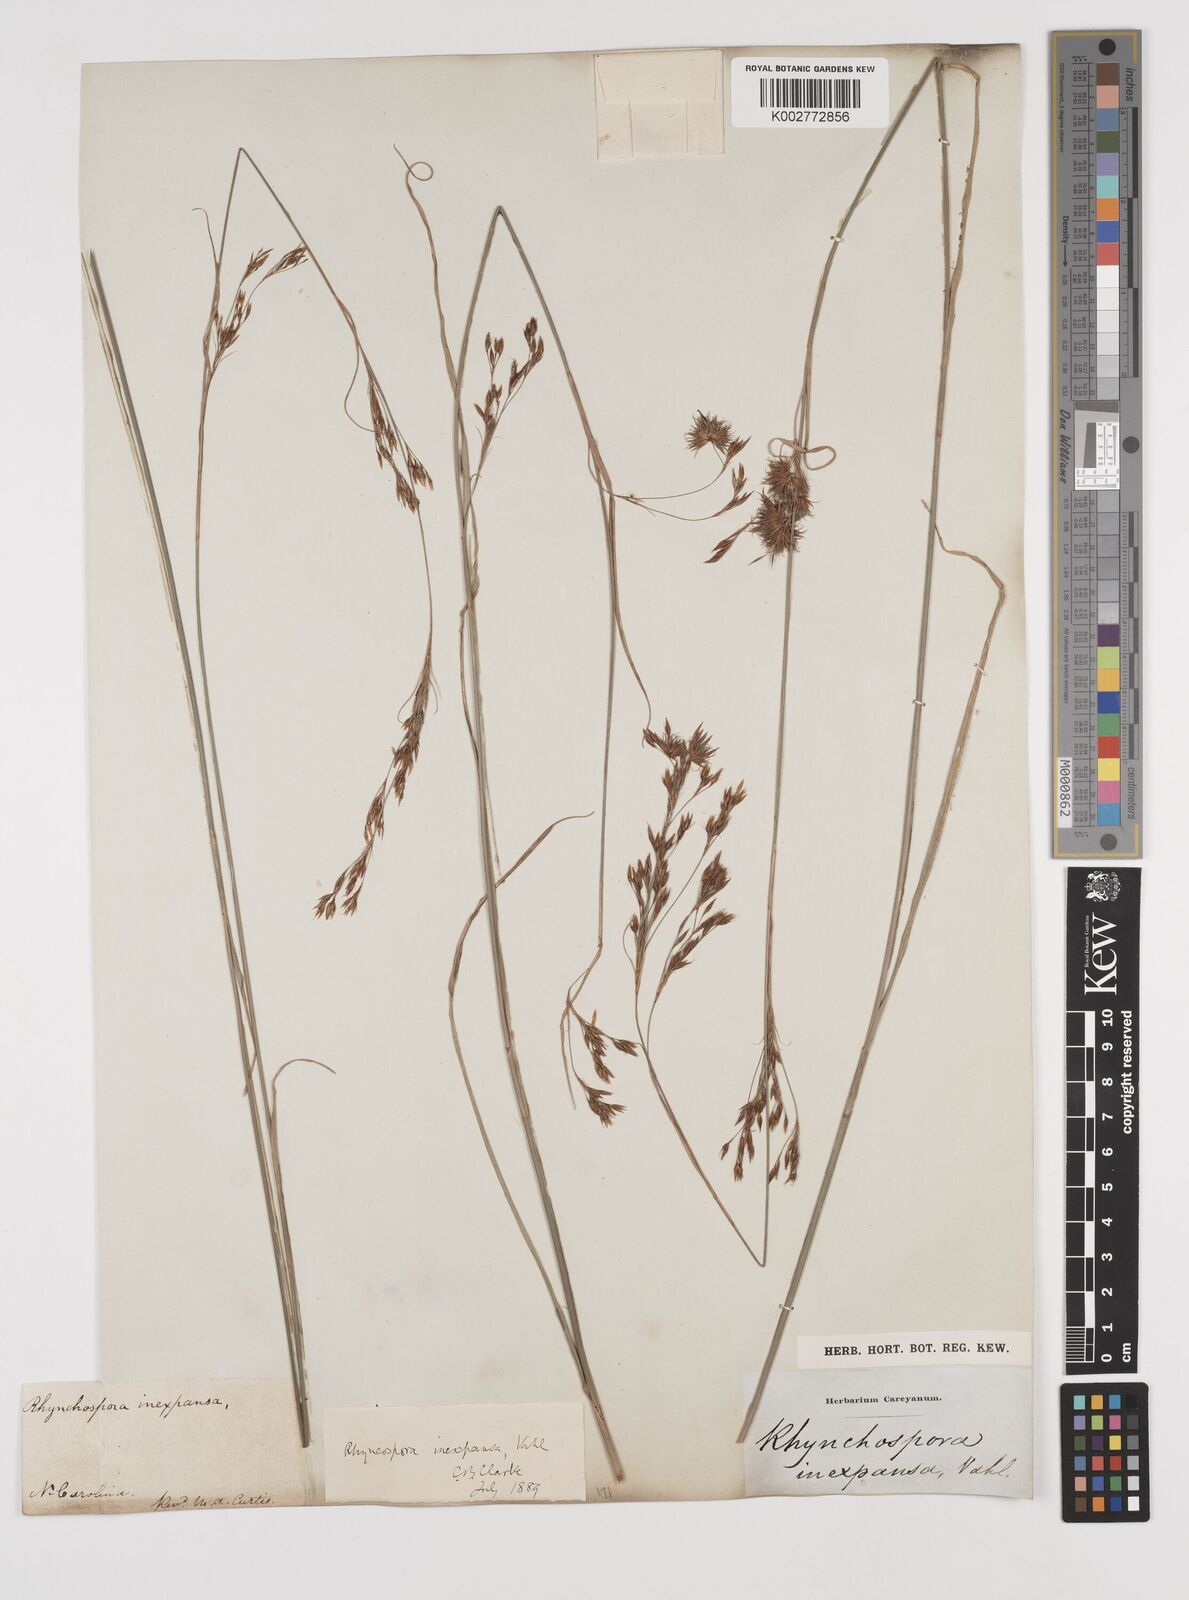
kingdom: Plantae
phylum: Tracheophyta
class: Liliopsida
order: Poales
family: Cyperaceae
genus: Rhynchospora
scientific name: Rhynchospora inexpansa
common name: Nodding beaksedge
